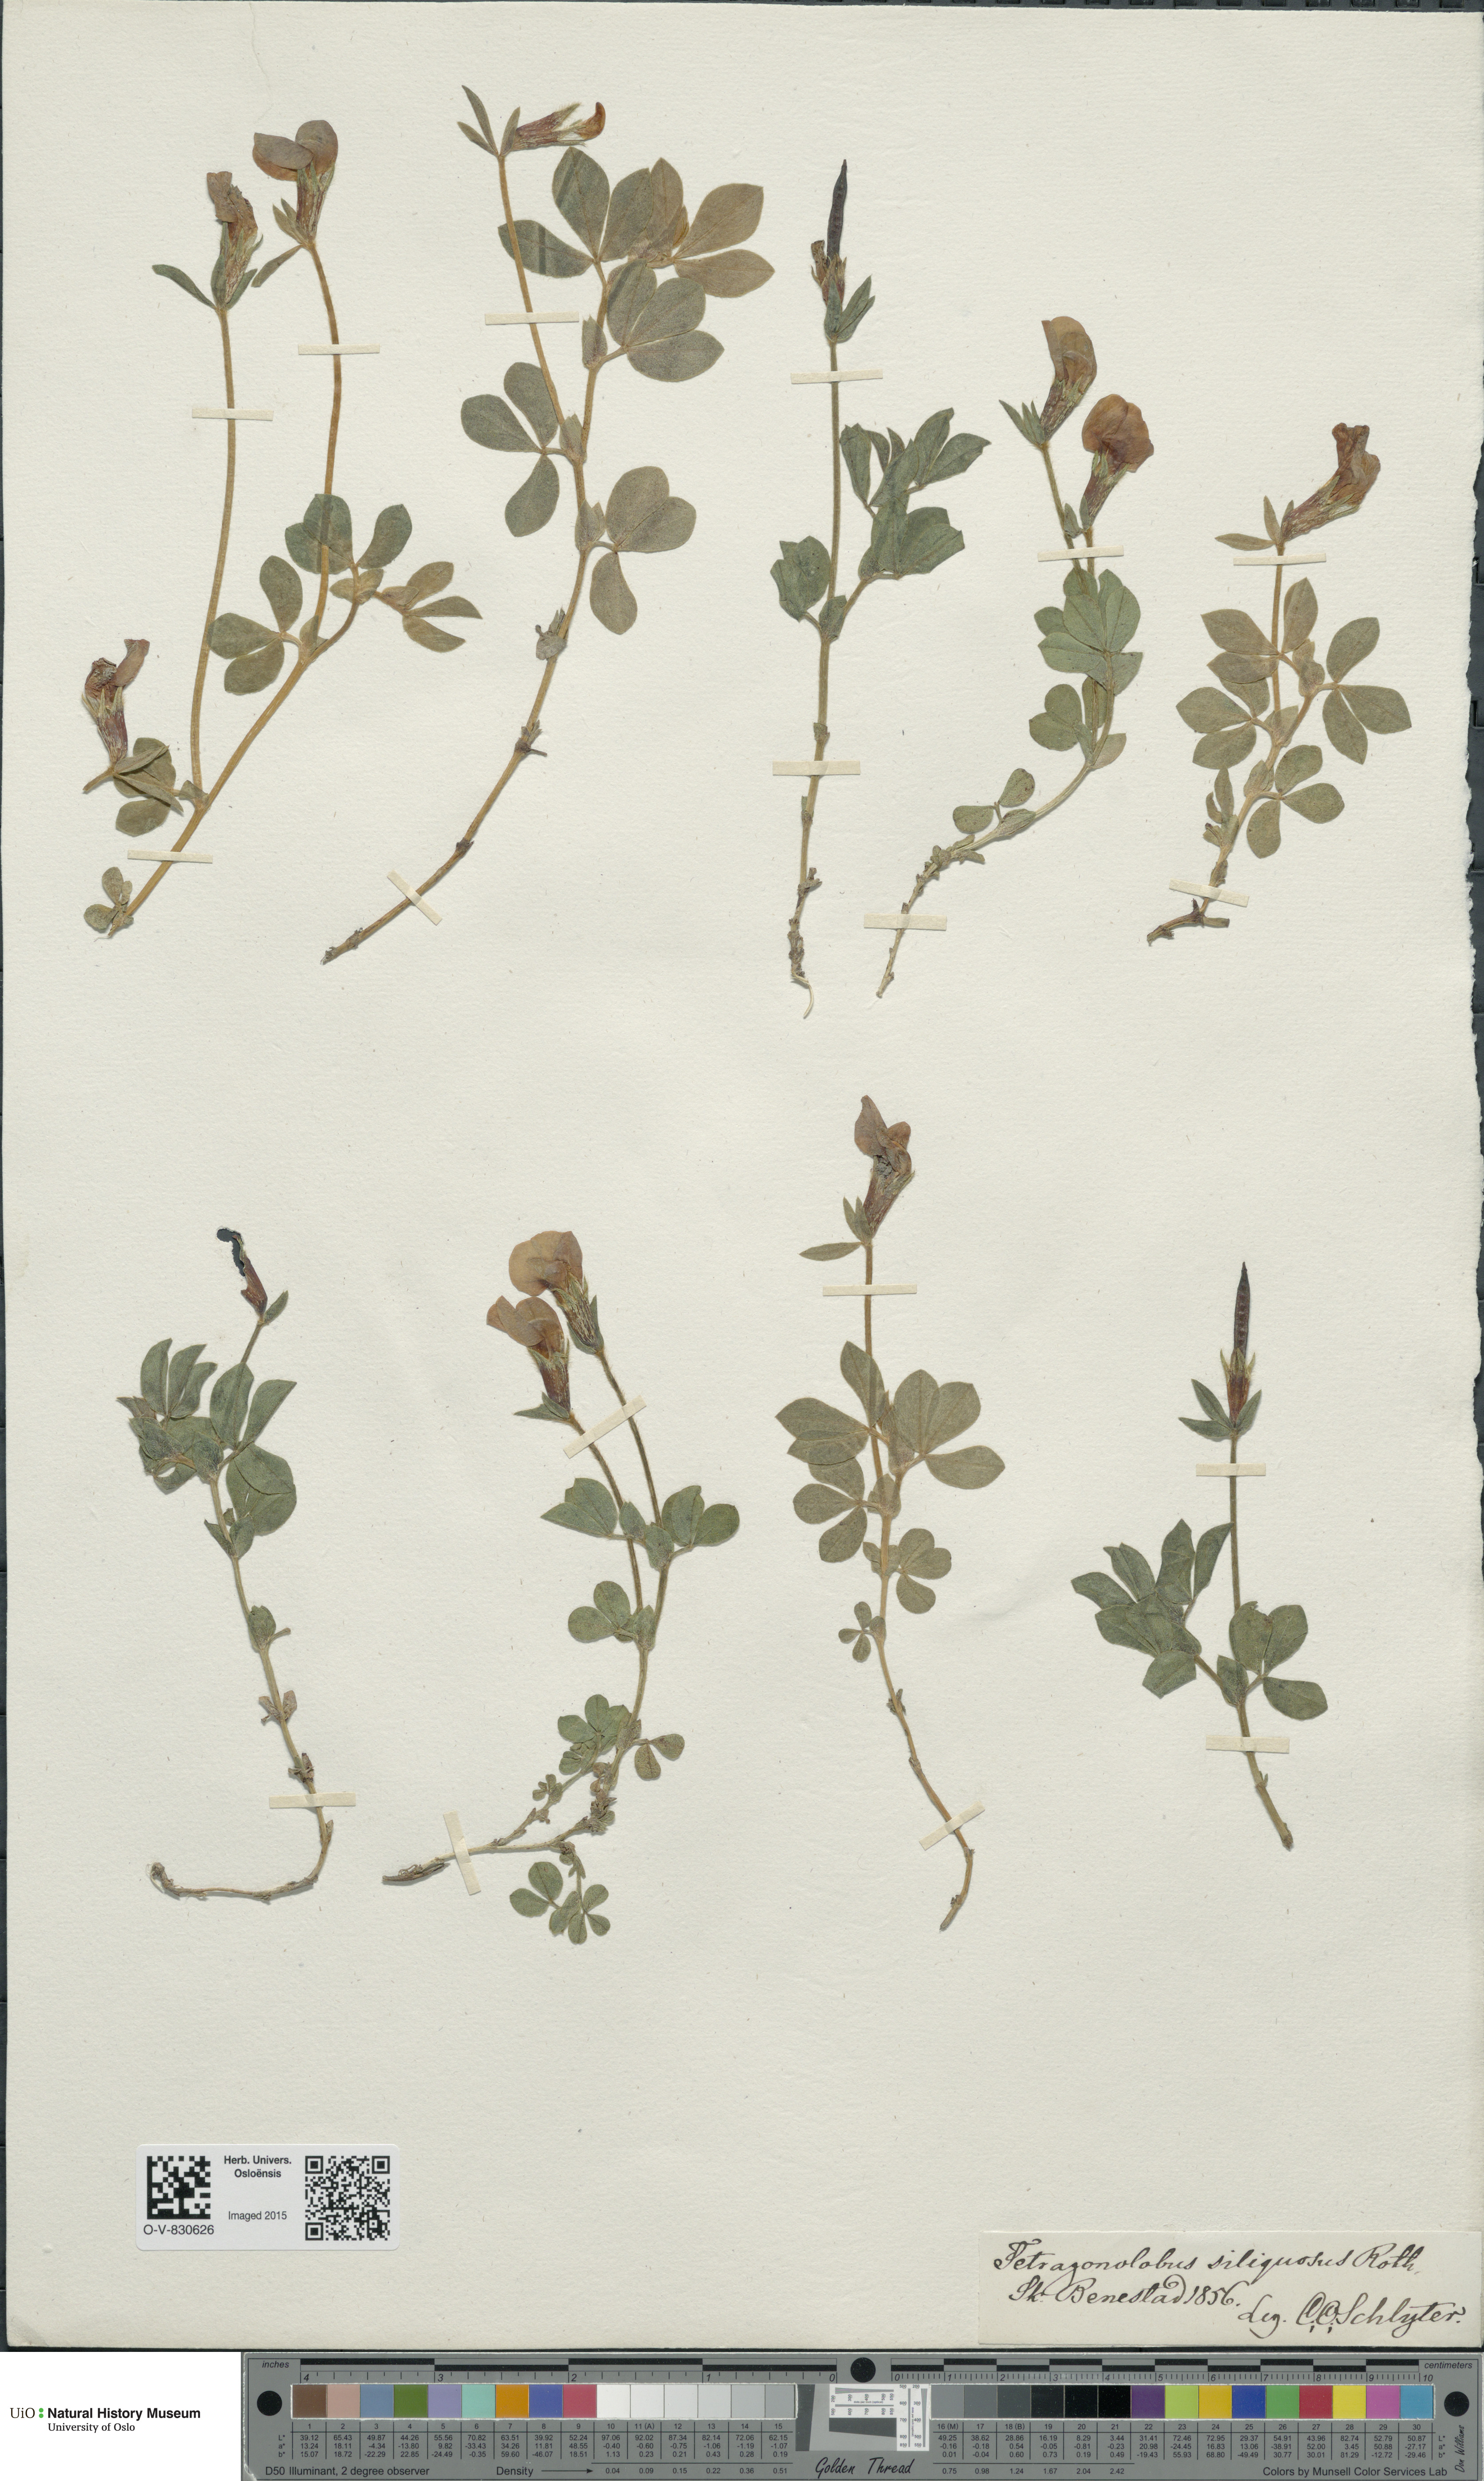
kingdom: Plantae
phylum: Tracheophyta
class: Magnoliopsida
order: Fabales
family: Fabaceae
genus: Lotus
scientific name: Lotus maritimus
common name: Dragon's-teeth
